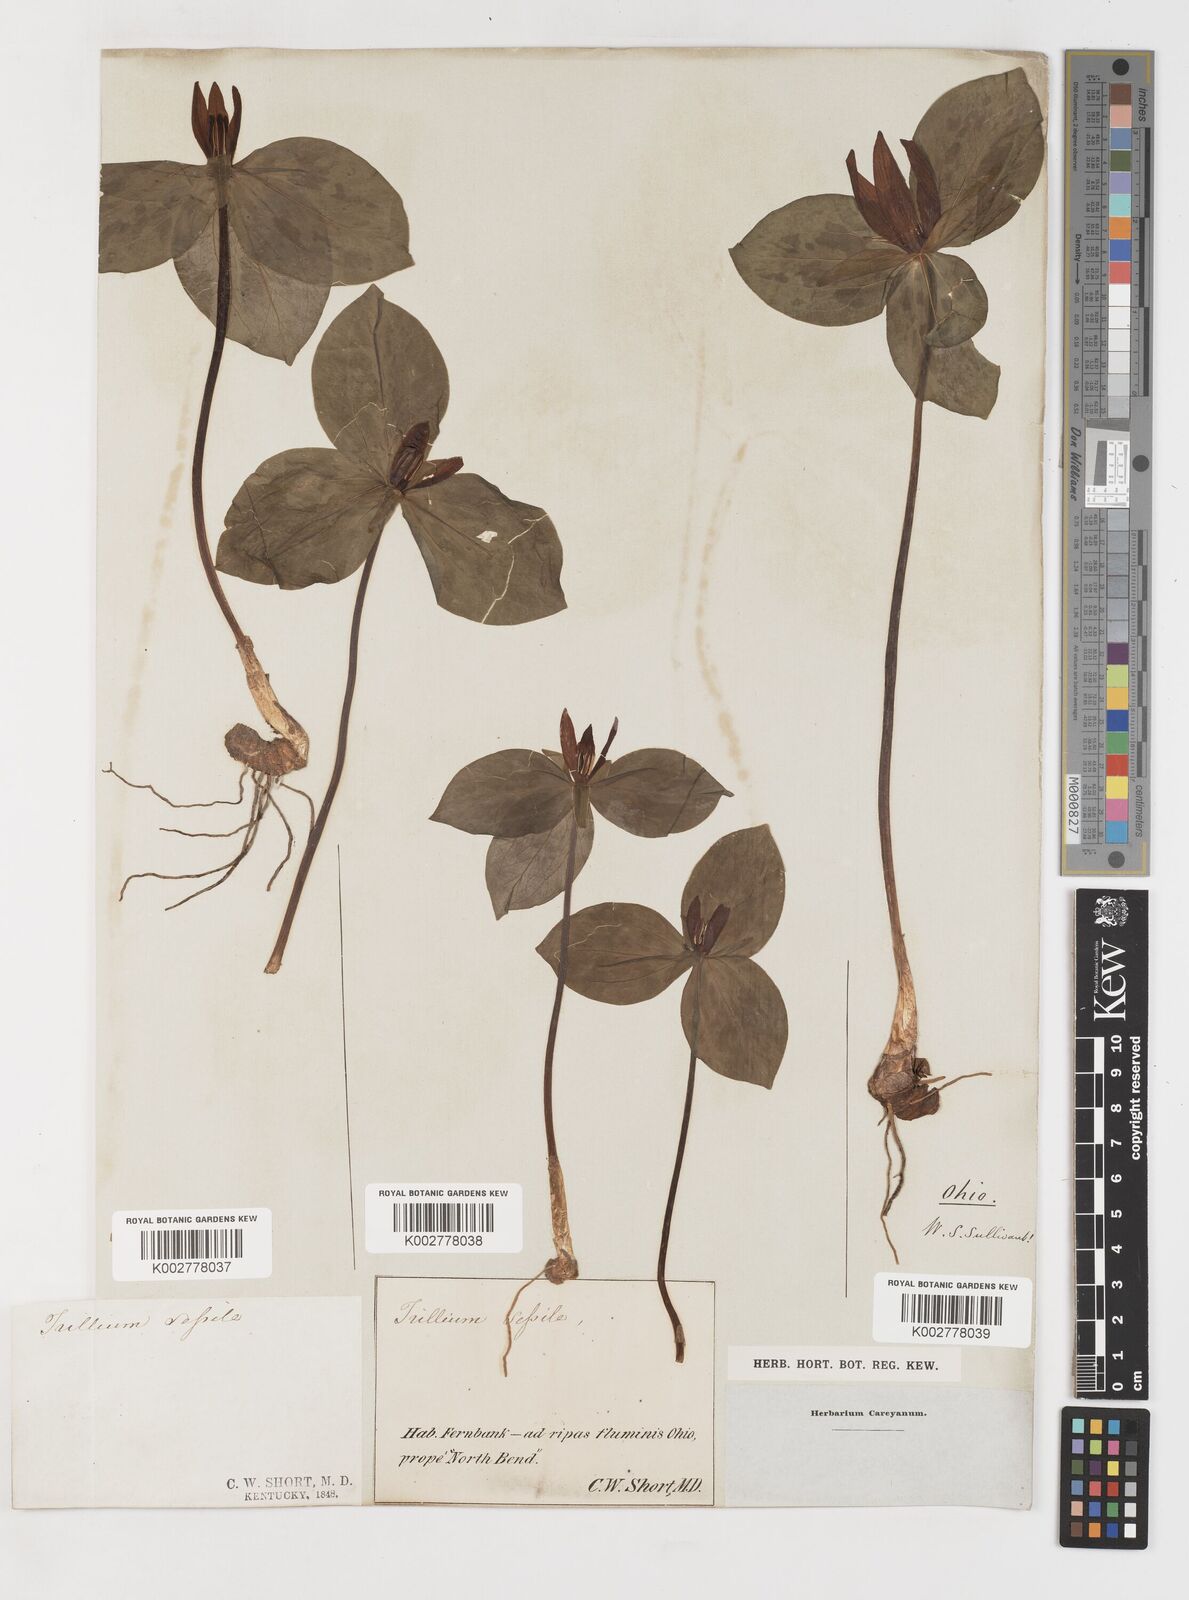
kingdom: Plantae
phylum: Tracheophyta
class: Liliopsida
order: Liliales
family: Melanthiaceae
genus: Trillium
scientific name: Trillium sessile
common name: Sessile trillium
